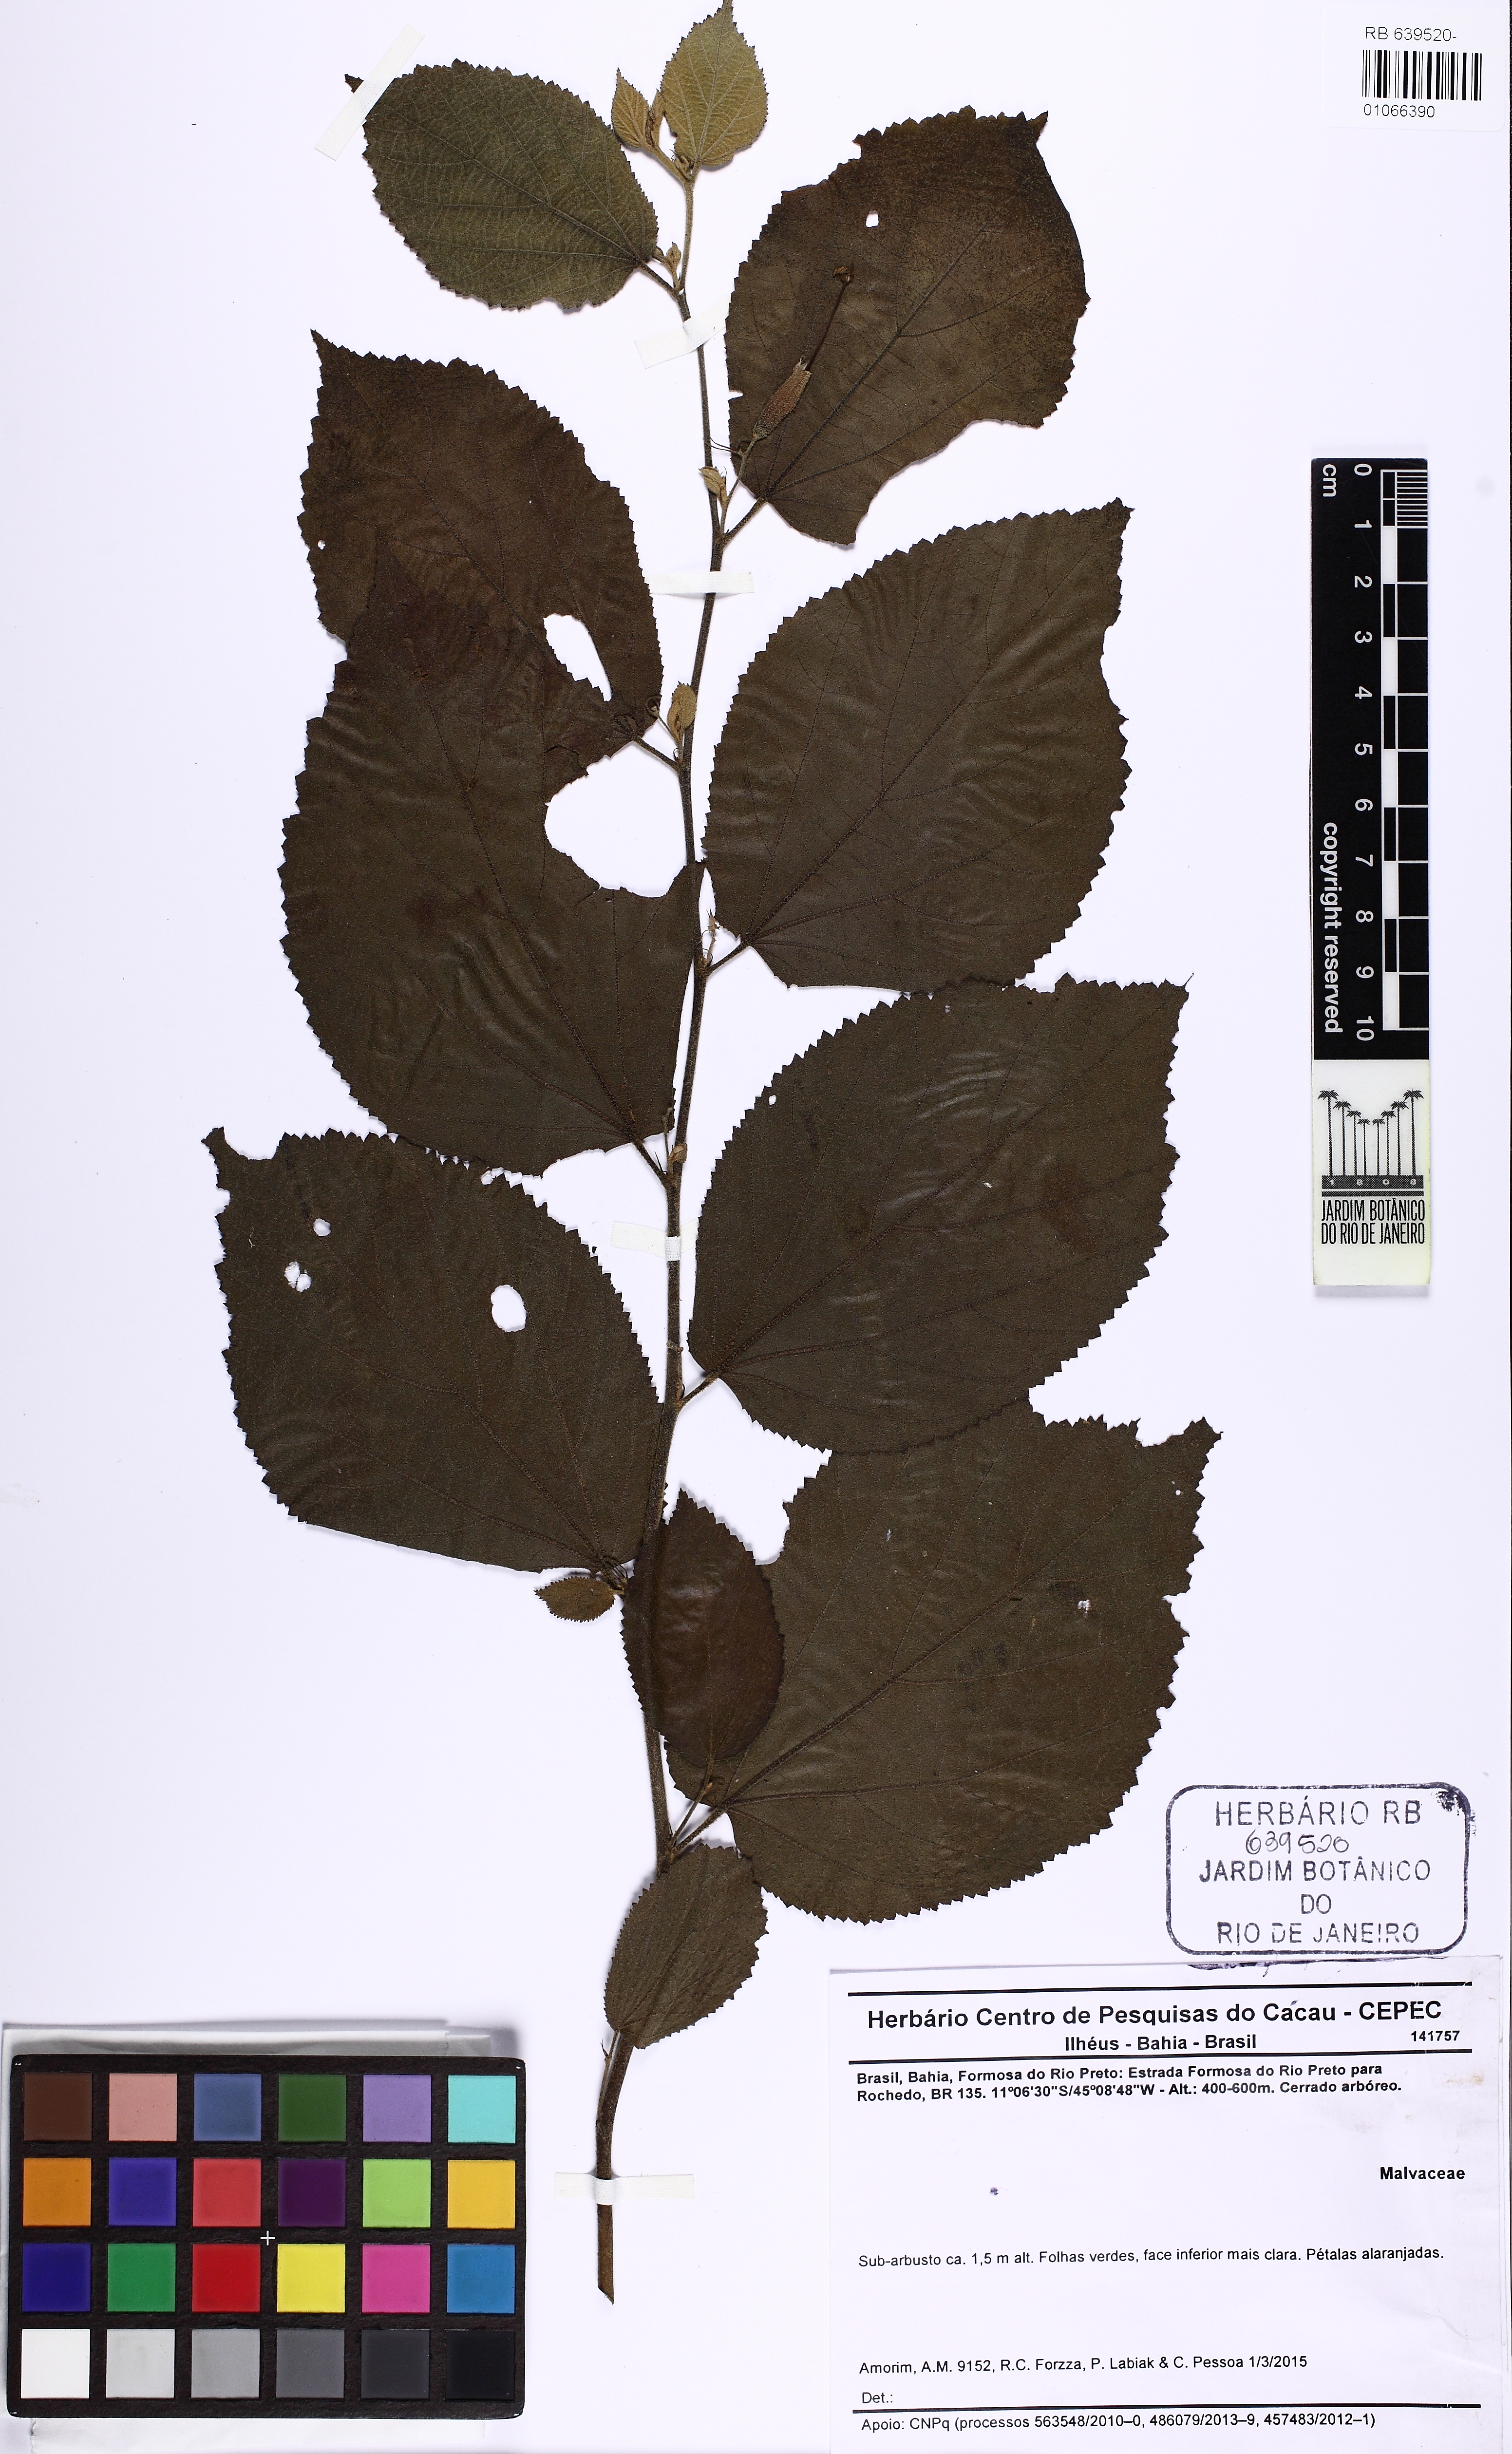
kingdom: Plantae
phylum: Tracheophyta
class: Magnoliopsida
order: Malvales
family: Malvaceae
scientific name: Malvaceae
